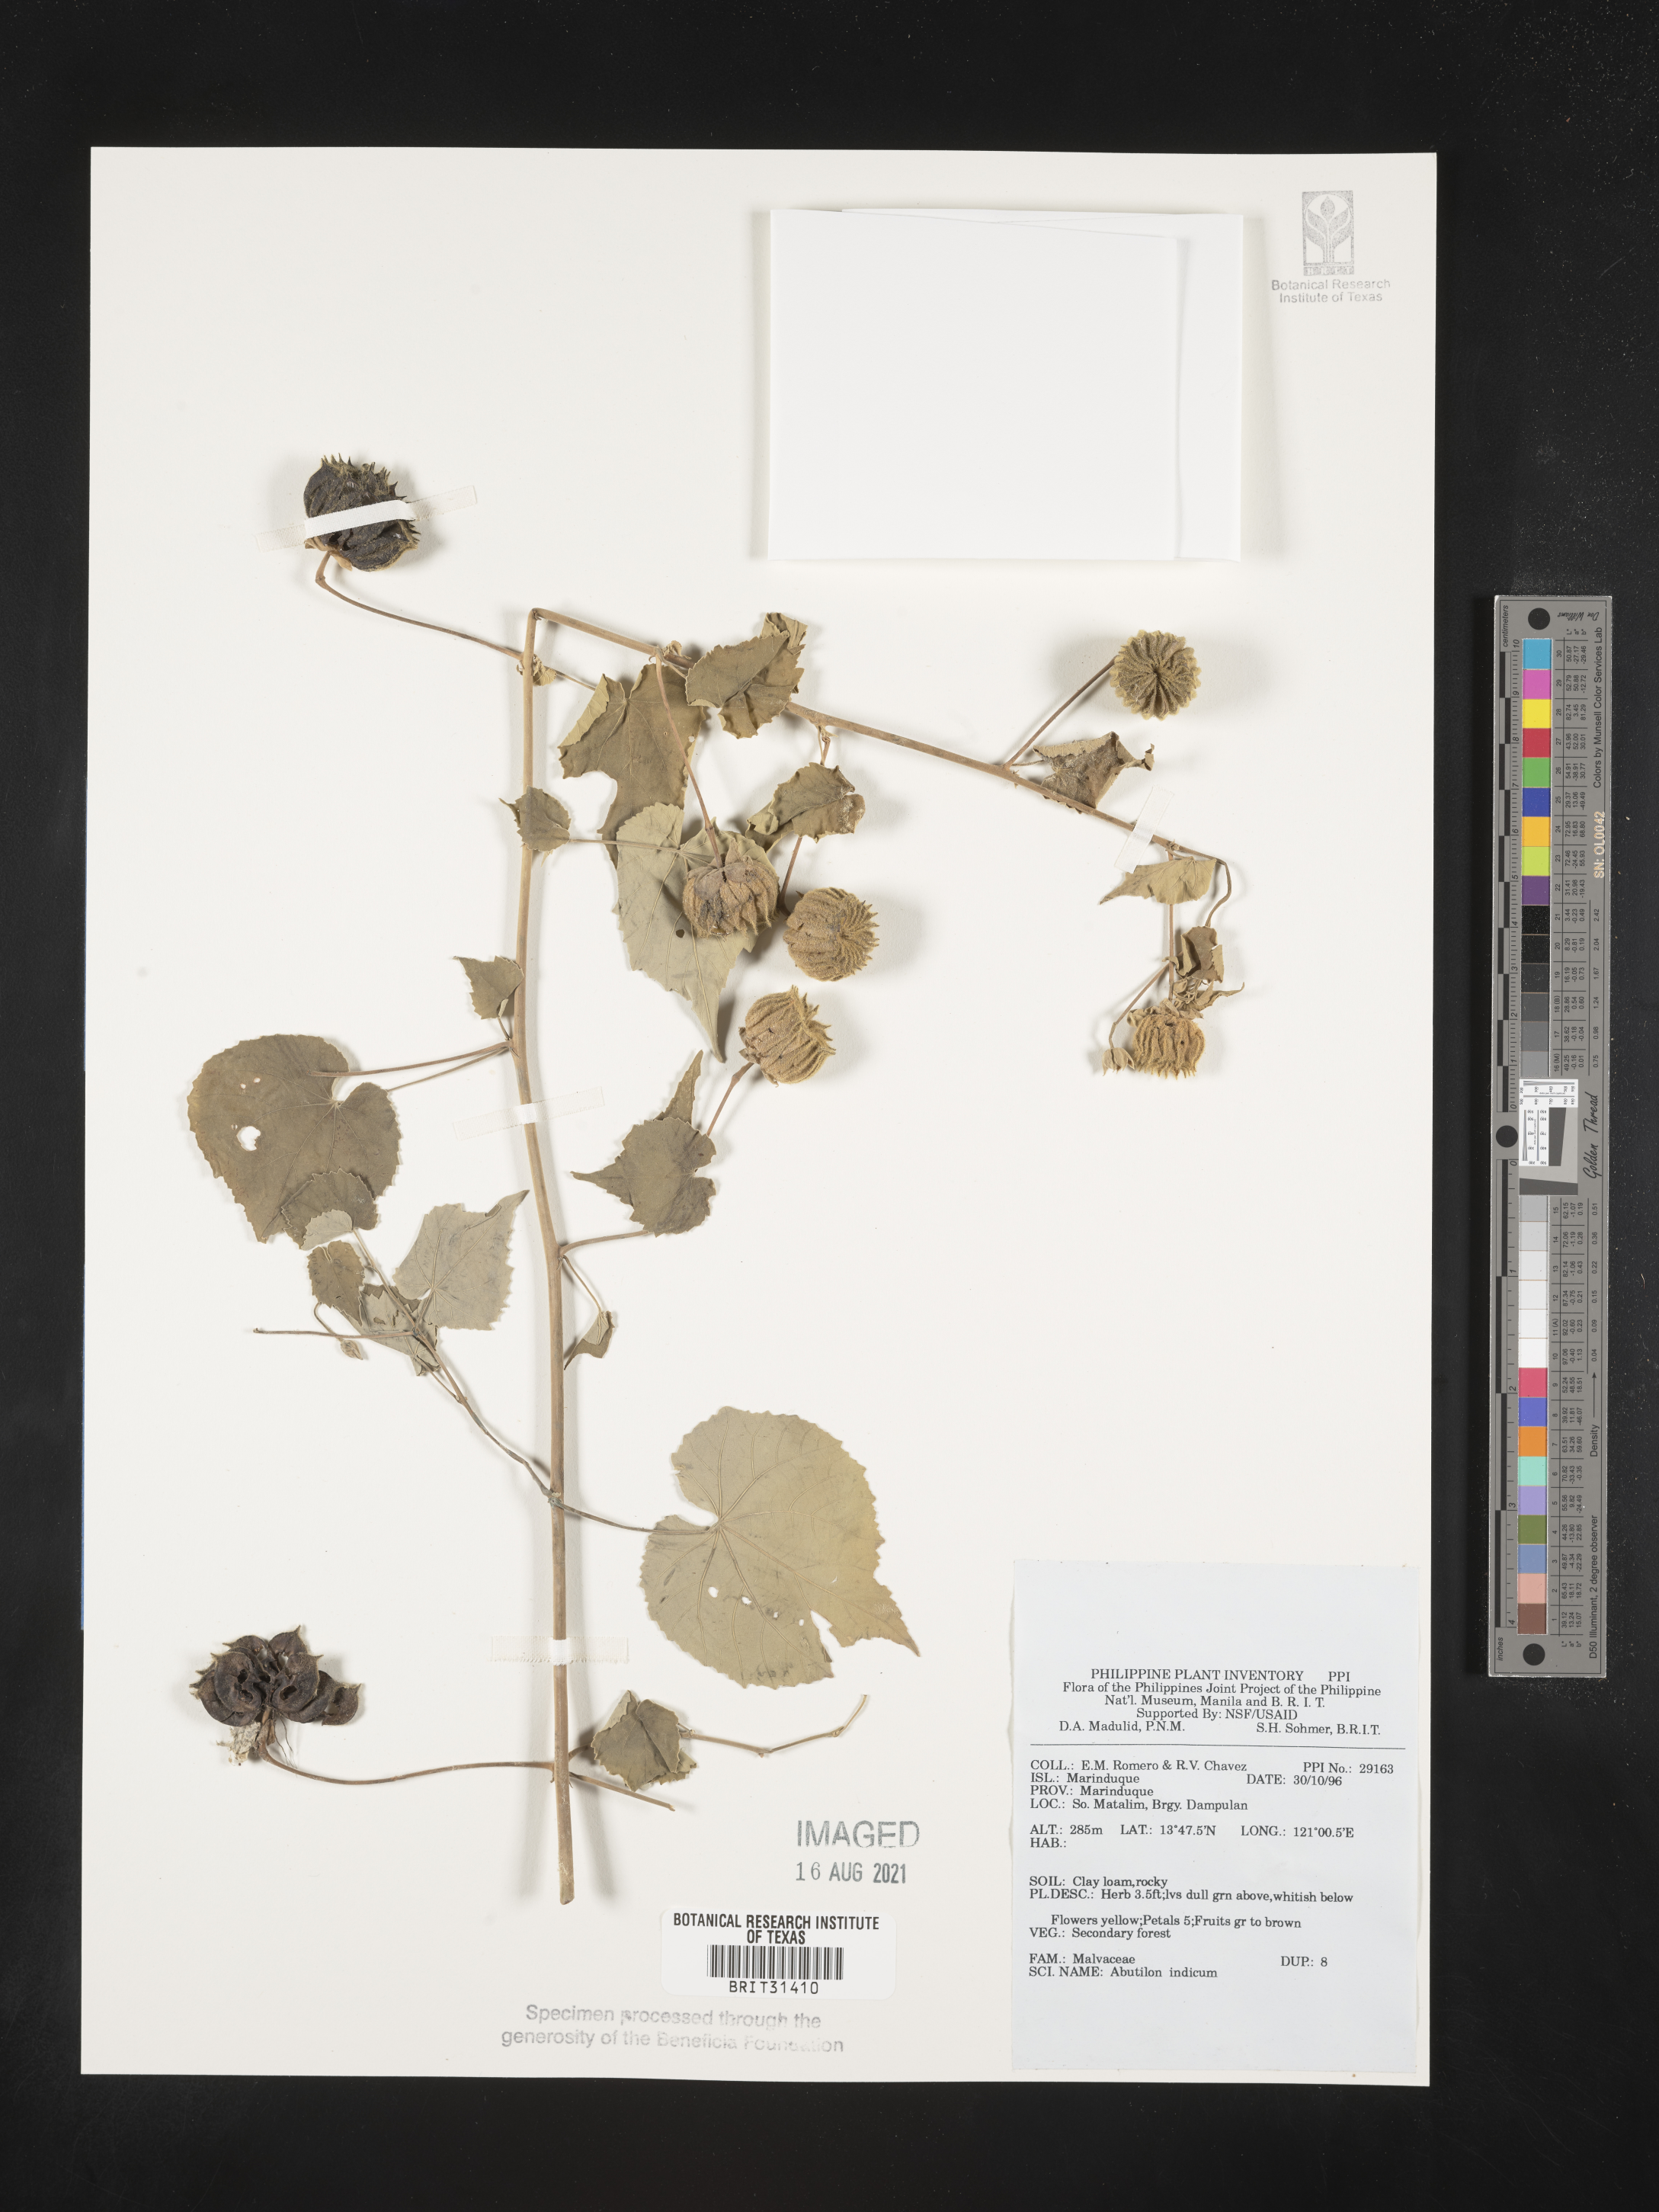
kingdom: Plantae
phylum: Tracheophyta
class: Magnoliopsida
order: Malvales
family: Malvaceae
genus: Abutilon
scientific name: Abutilon indicum
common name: Indian abutilon
